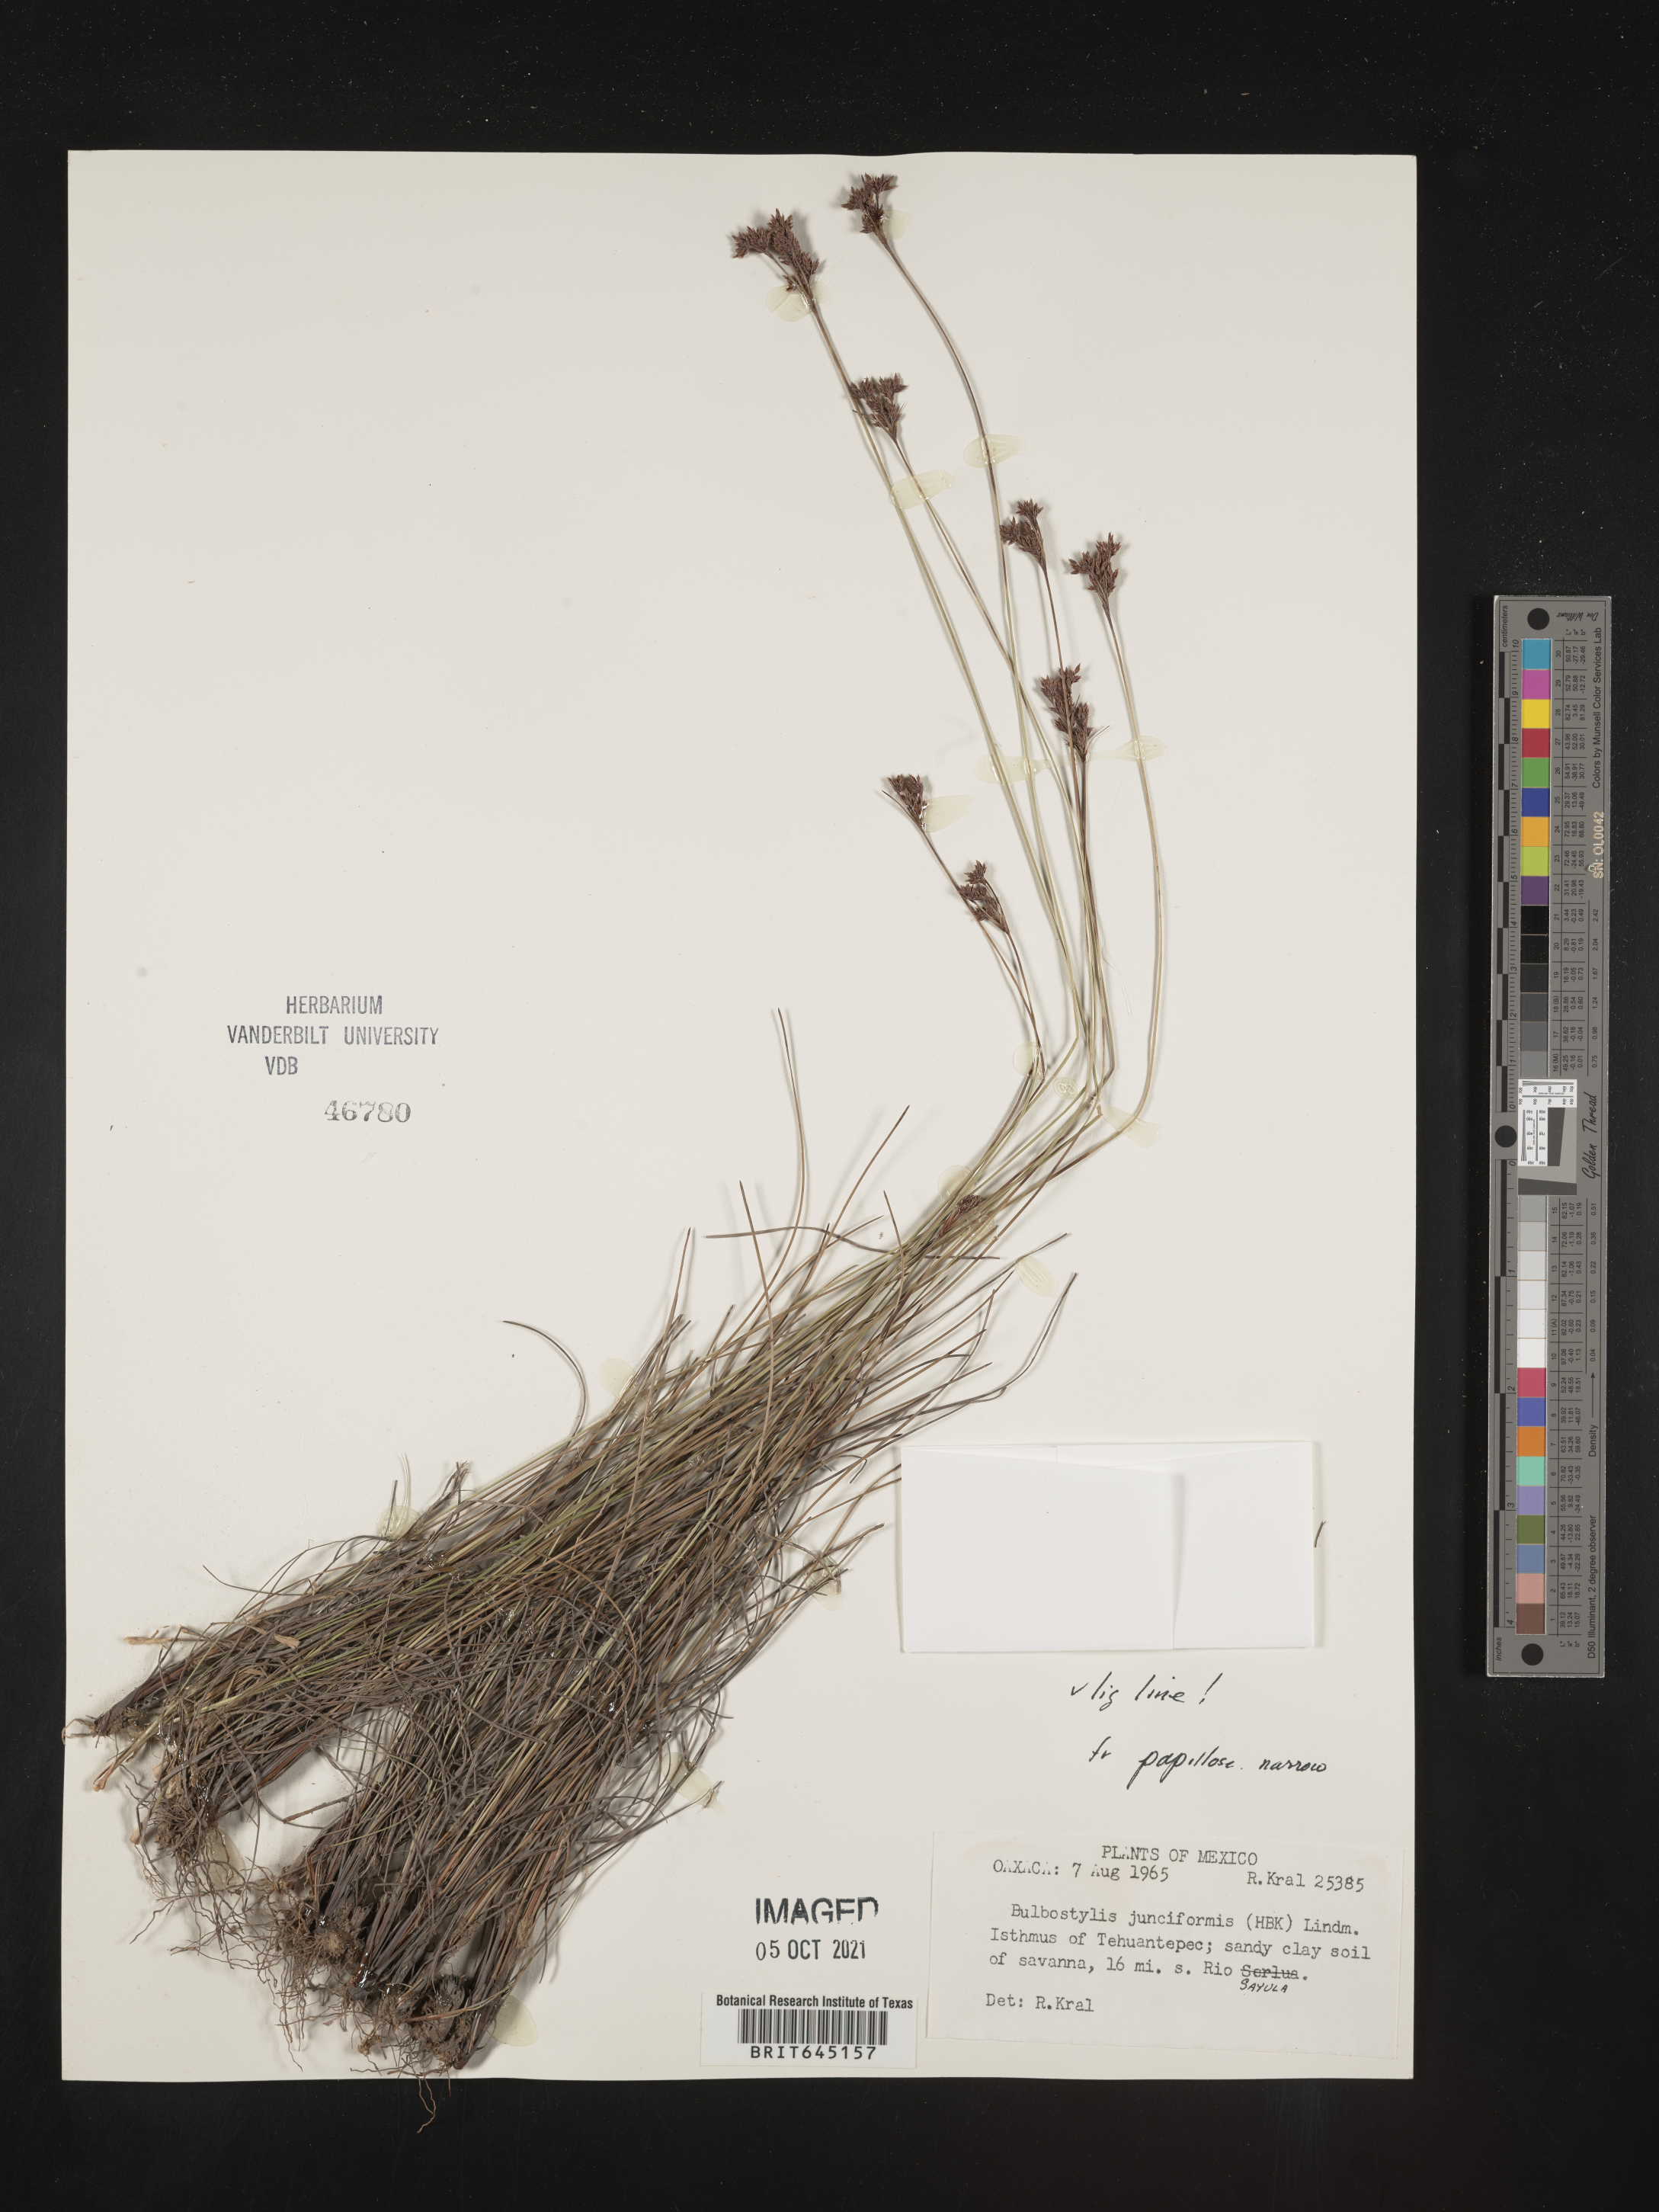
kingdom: Plantae
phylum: Tracheophyta
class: Liliopsida
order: Poales
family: Cyperaceae
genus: Bulbostylis
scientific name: Bulbostylis junciformis
